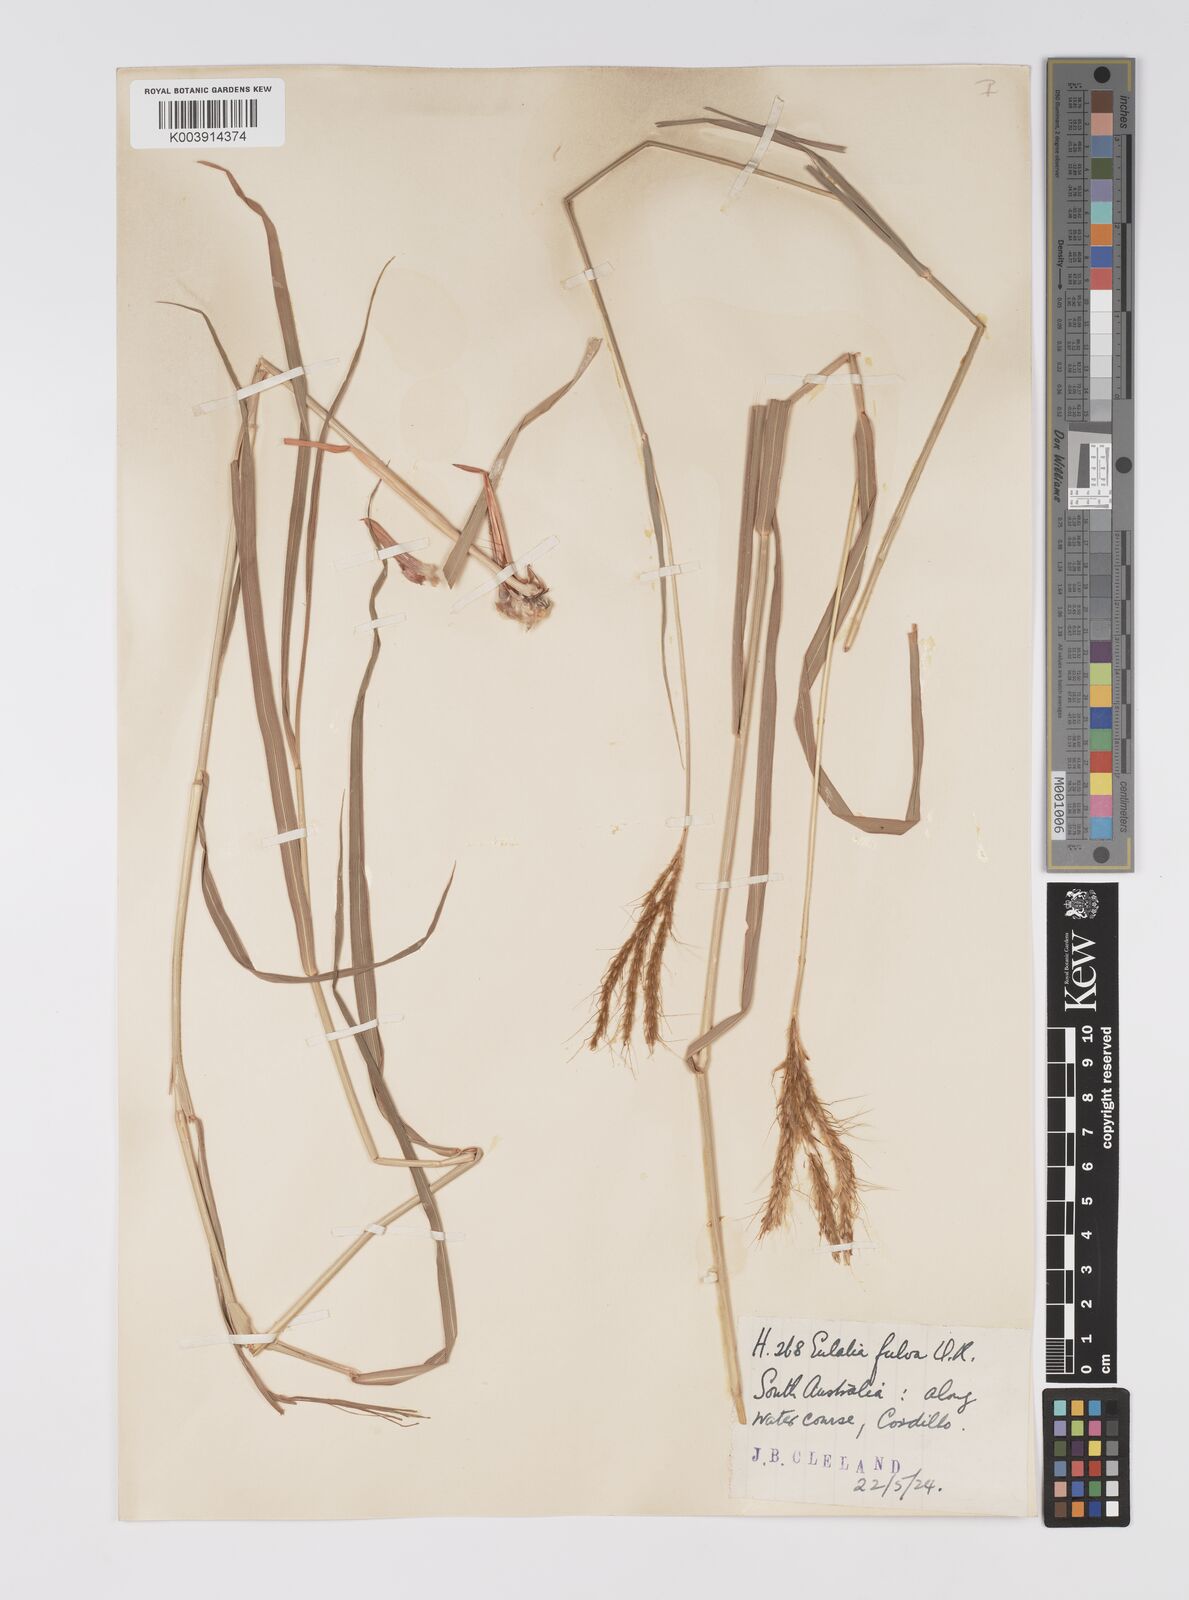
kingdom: Plantae
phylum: Tracheophyta
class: Liliopsida
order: Poales
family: Poaceae
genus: Eulalia
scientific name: Eulalia aurea
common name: Silky browntop
